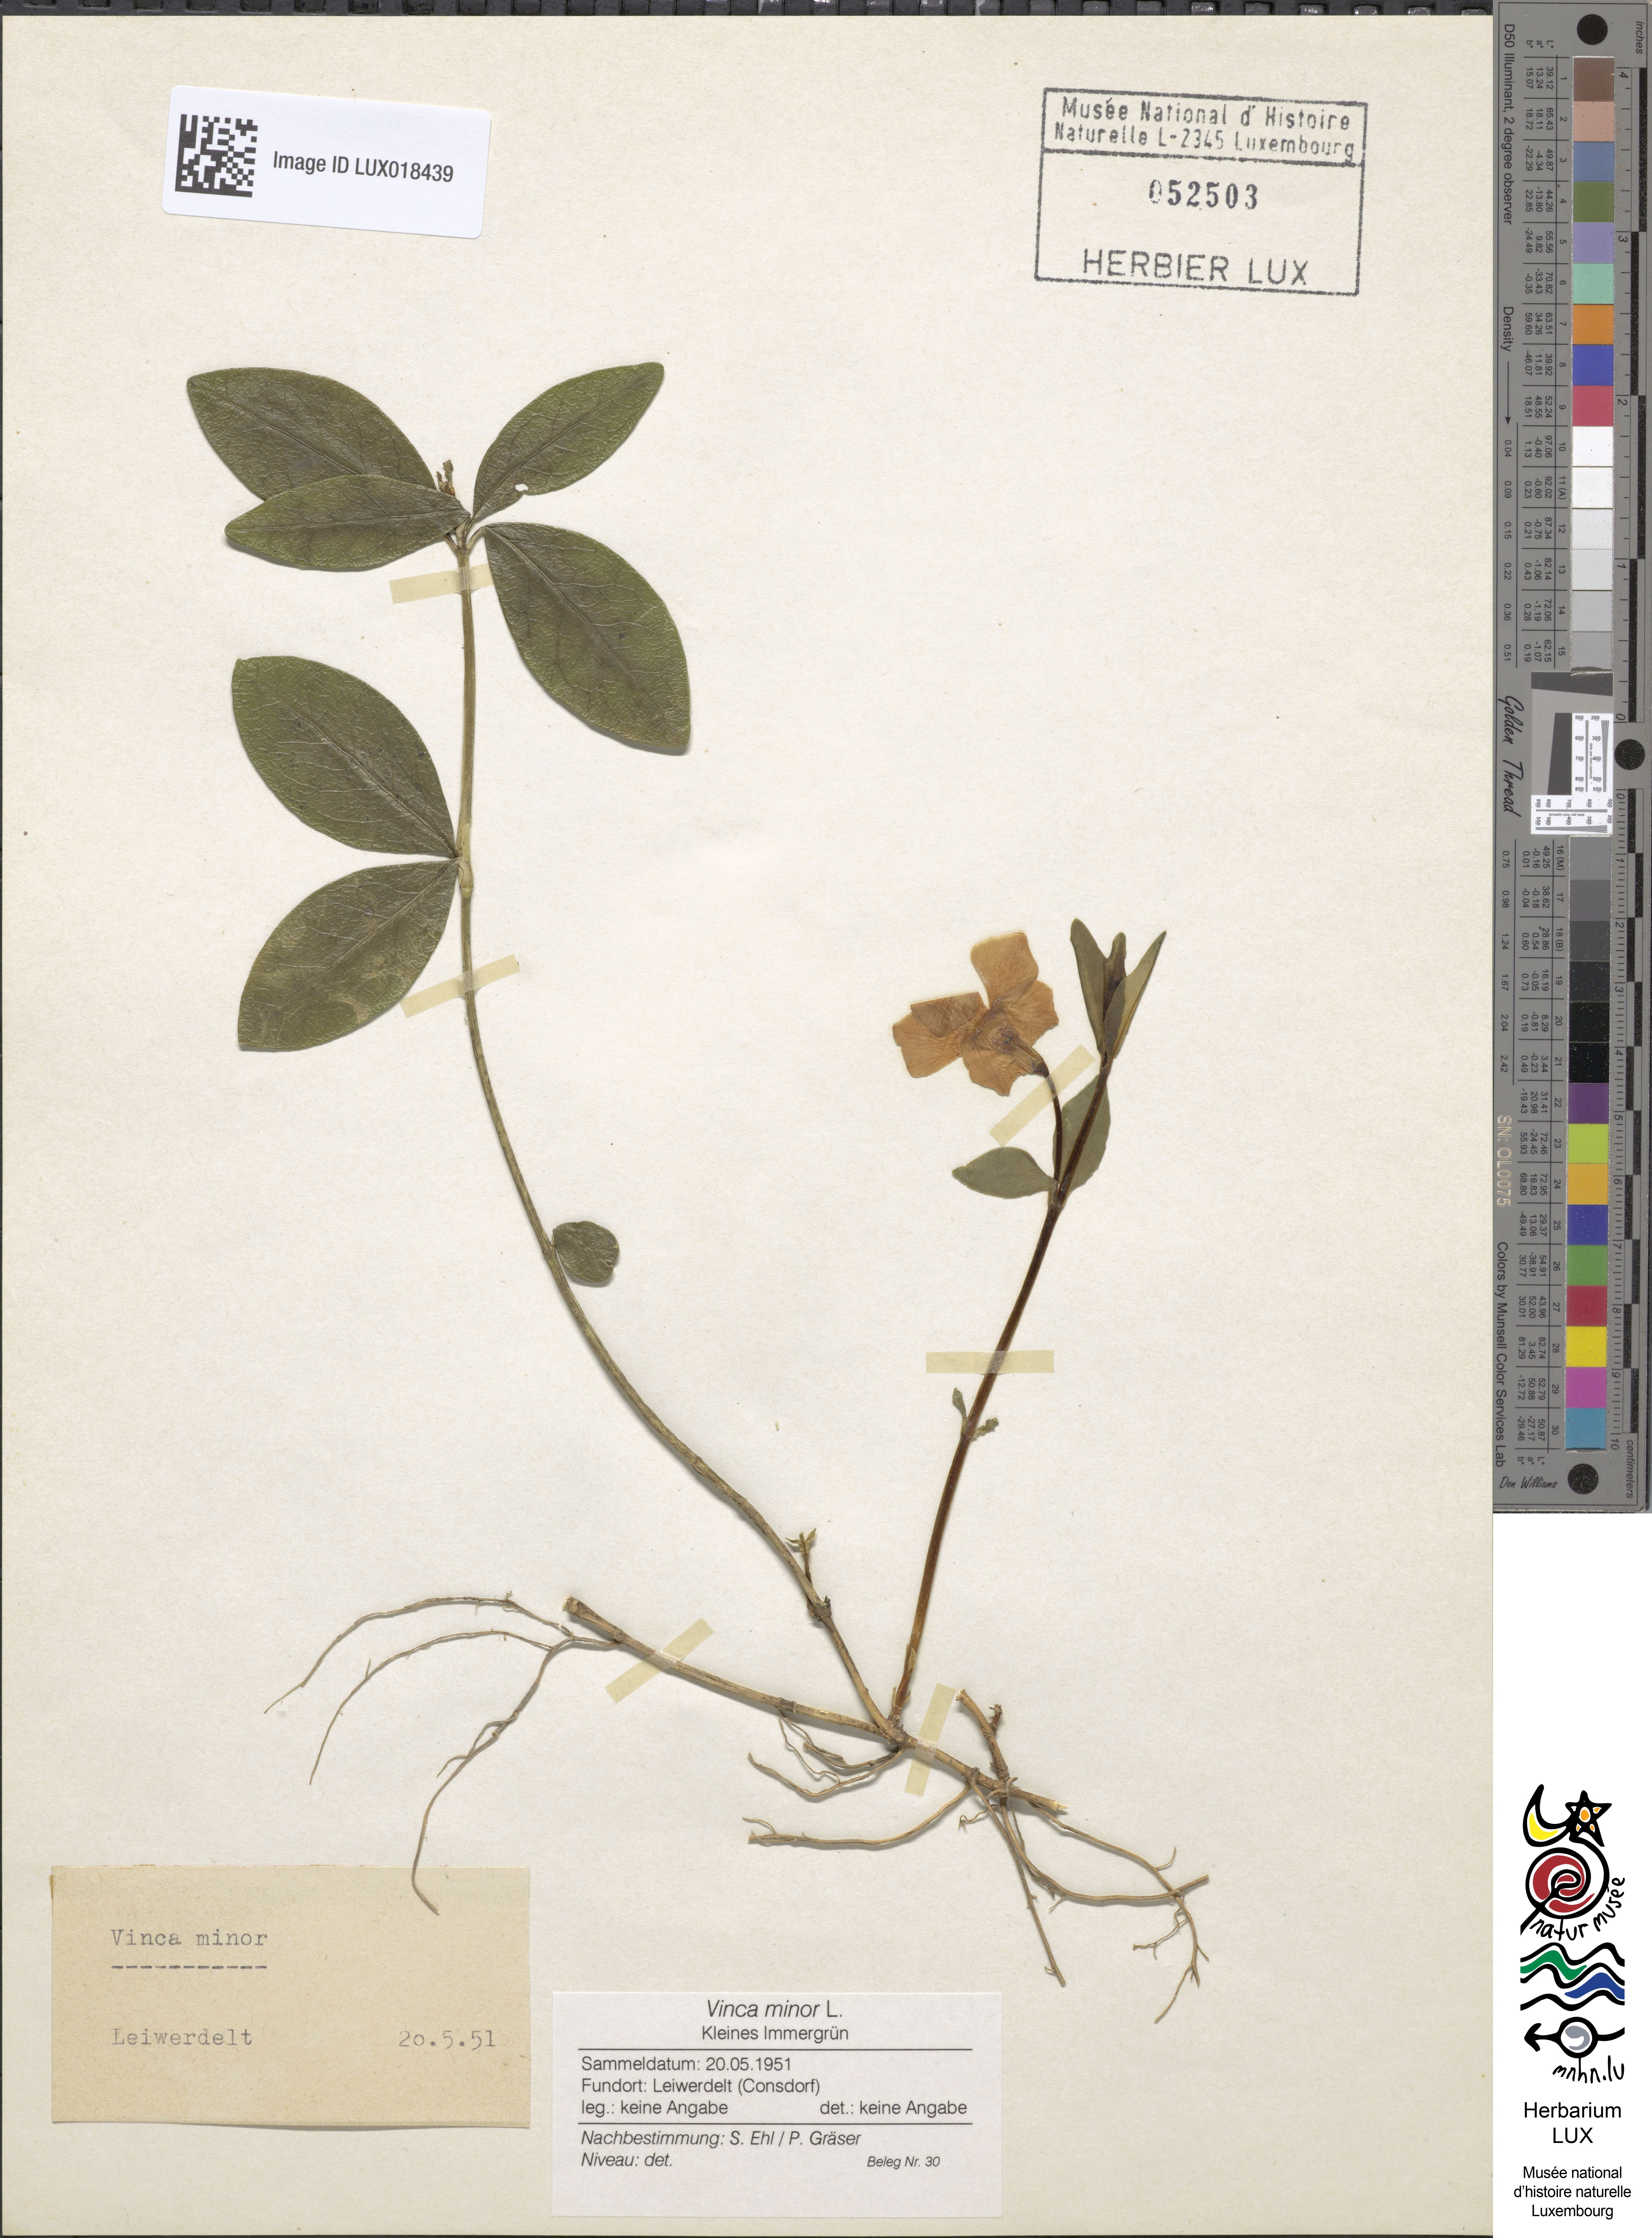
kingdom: Plantae
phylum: Tracheophyta
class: Magnoliopsida
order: Gentianales
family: Apocynaceae
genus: Vinca
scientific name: Vinca minor
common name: Lesser periwinkle
